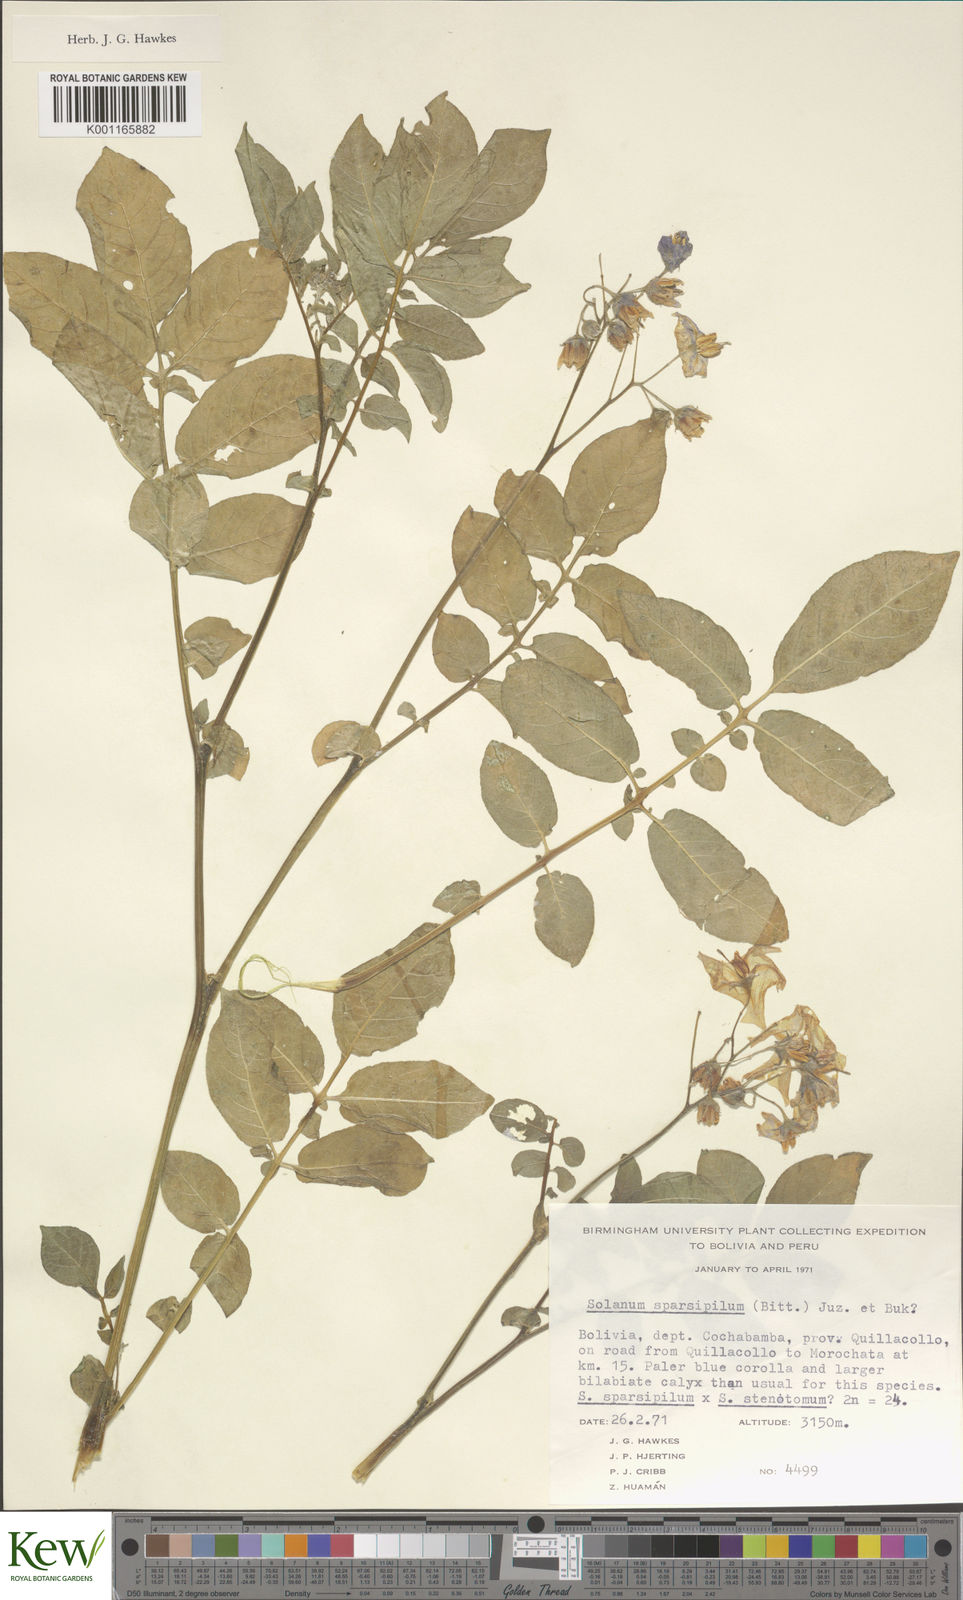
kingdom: Plantae
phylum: Tracheophyta
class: Magnoliopsida
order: Solanales
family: Solanaceae
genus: Solanum
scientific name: Solanum brevicaule
